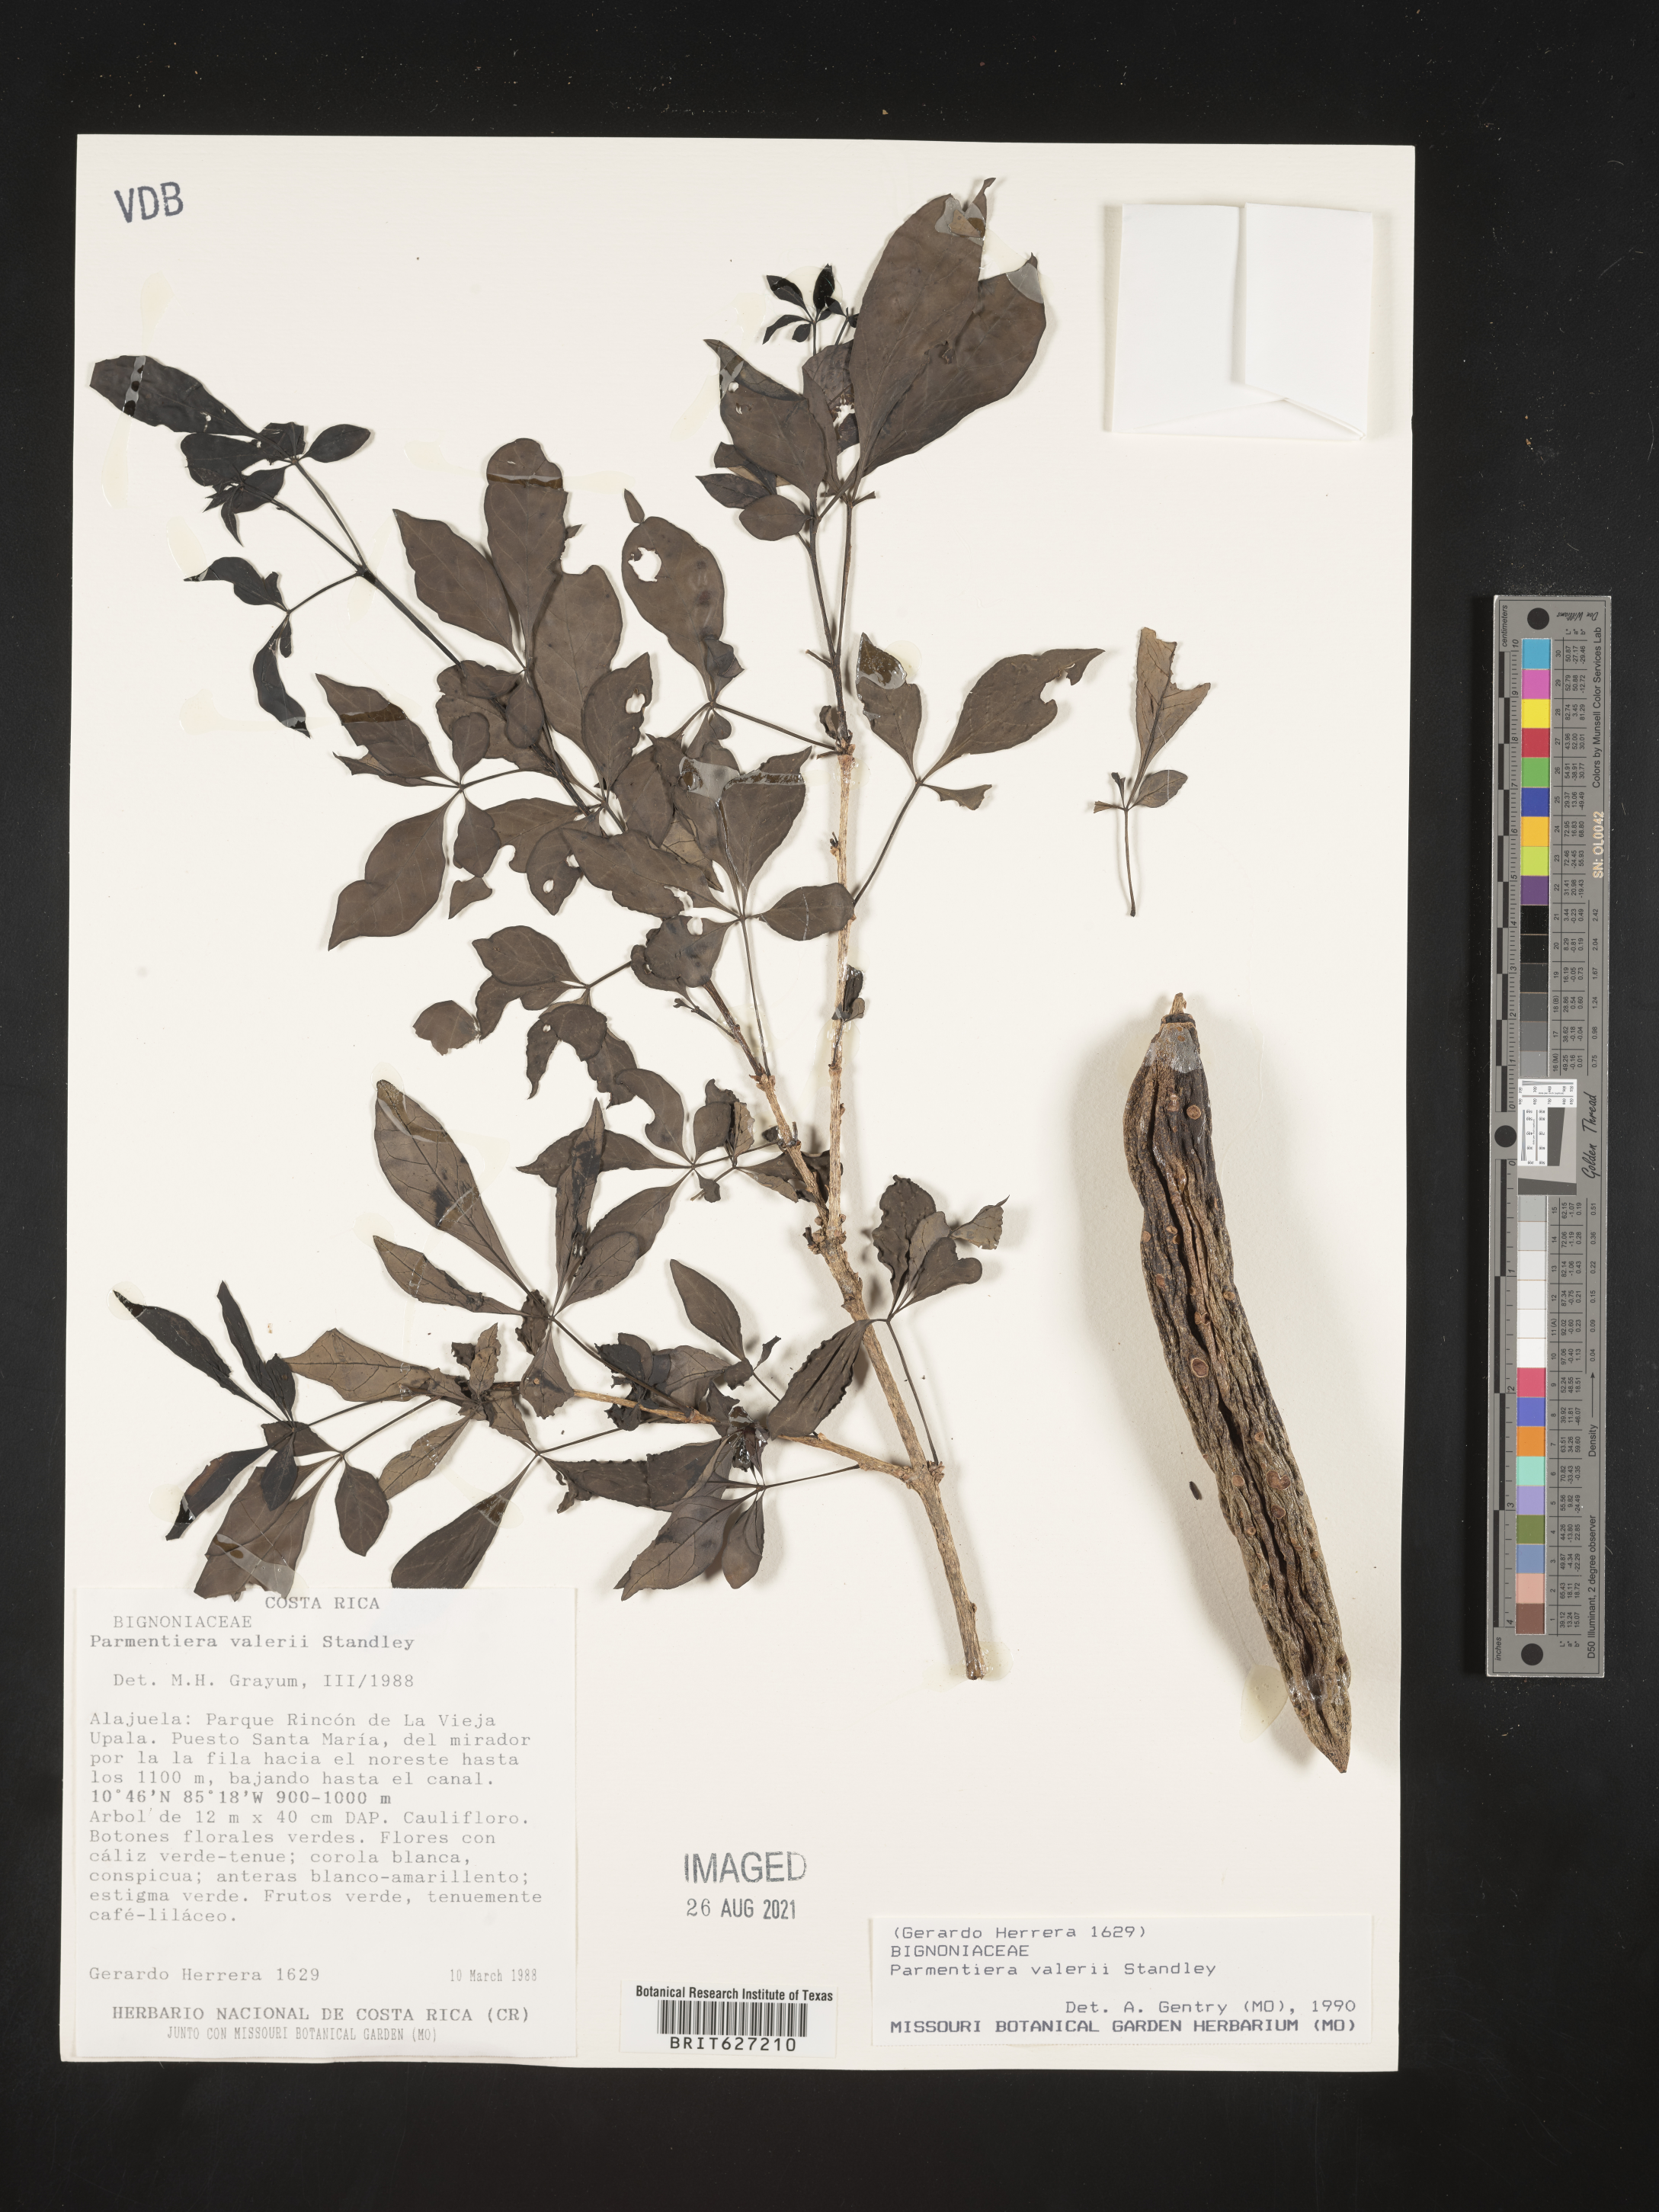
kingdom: Plantae
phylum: Tracheophyta
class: Magnoliopsida
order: Lamiales
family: Bignoniaceae
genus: Parmentiera
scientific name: Parmentiera valerii
